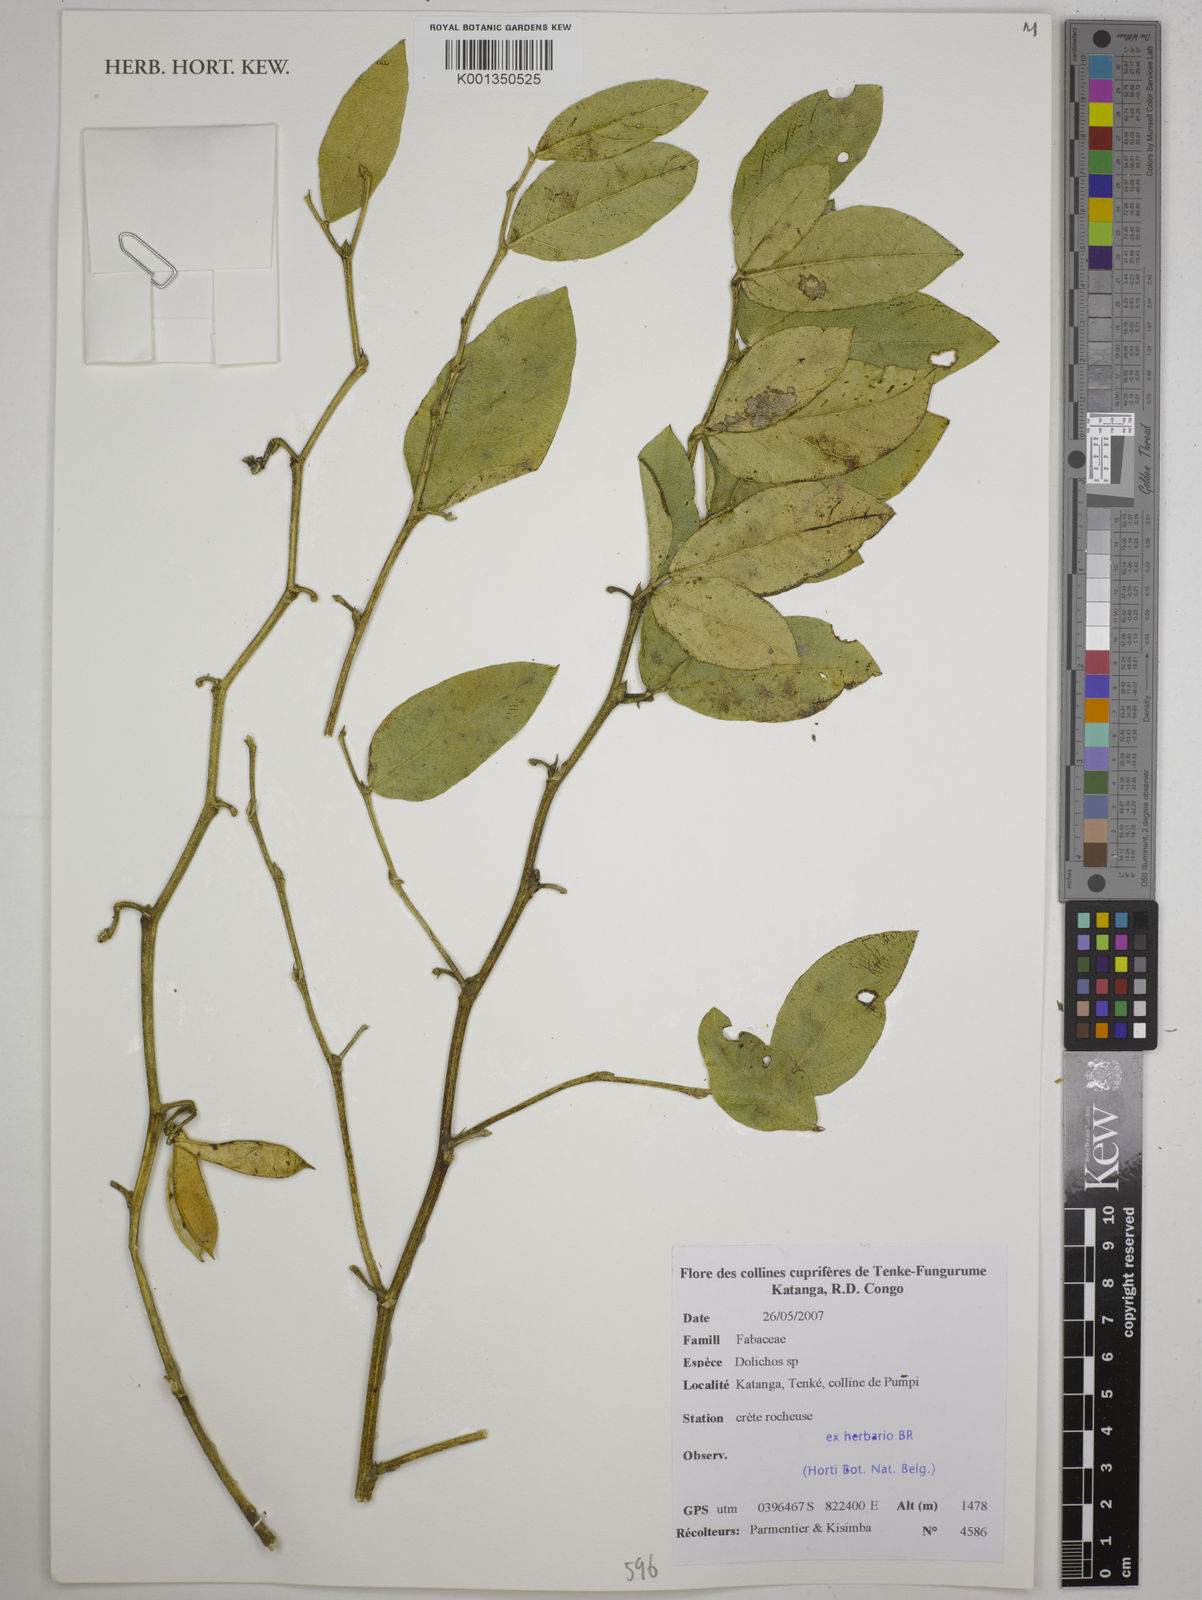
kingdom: Plantae
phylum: Tracheophyta
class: Magnoliopsida
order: Fabales
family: Fabaceae
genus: Dolichos
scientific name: Dolichos
